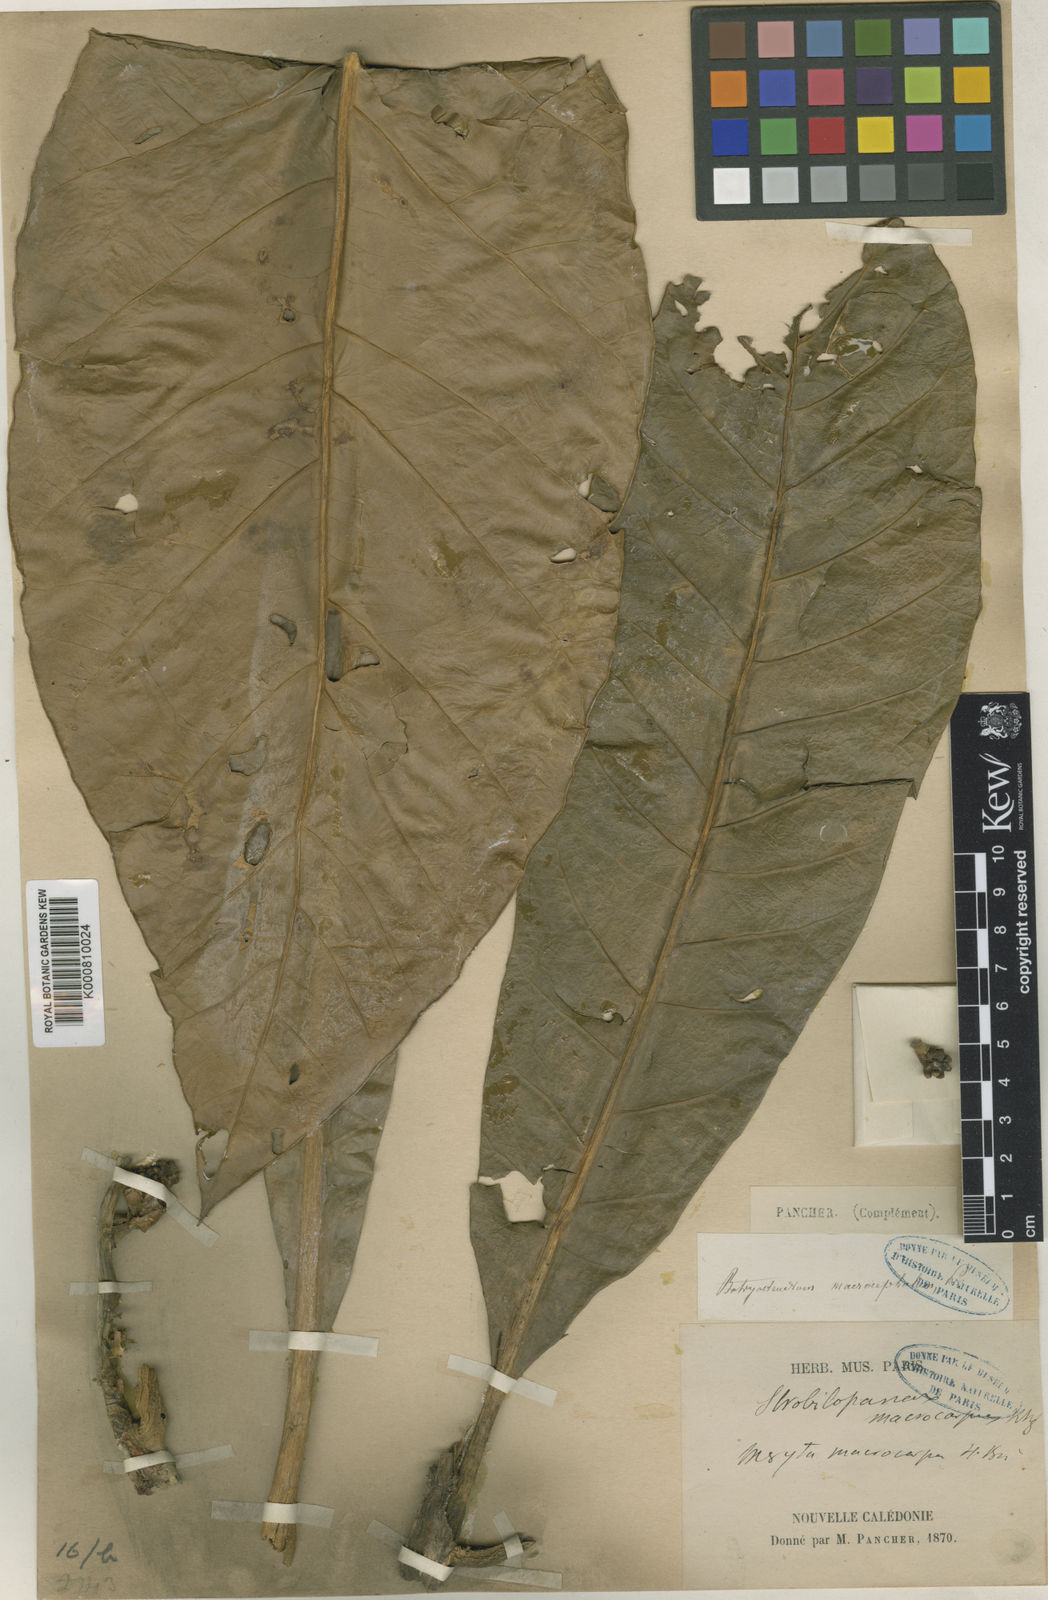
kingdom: Plantae
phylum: Tracheophyta
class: Magnoliopsida
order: Apiales
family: Araliaceae
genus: Meryta
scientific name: Meryta denhamii
